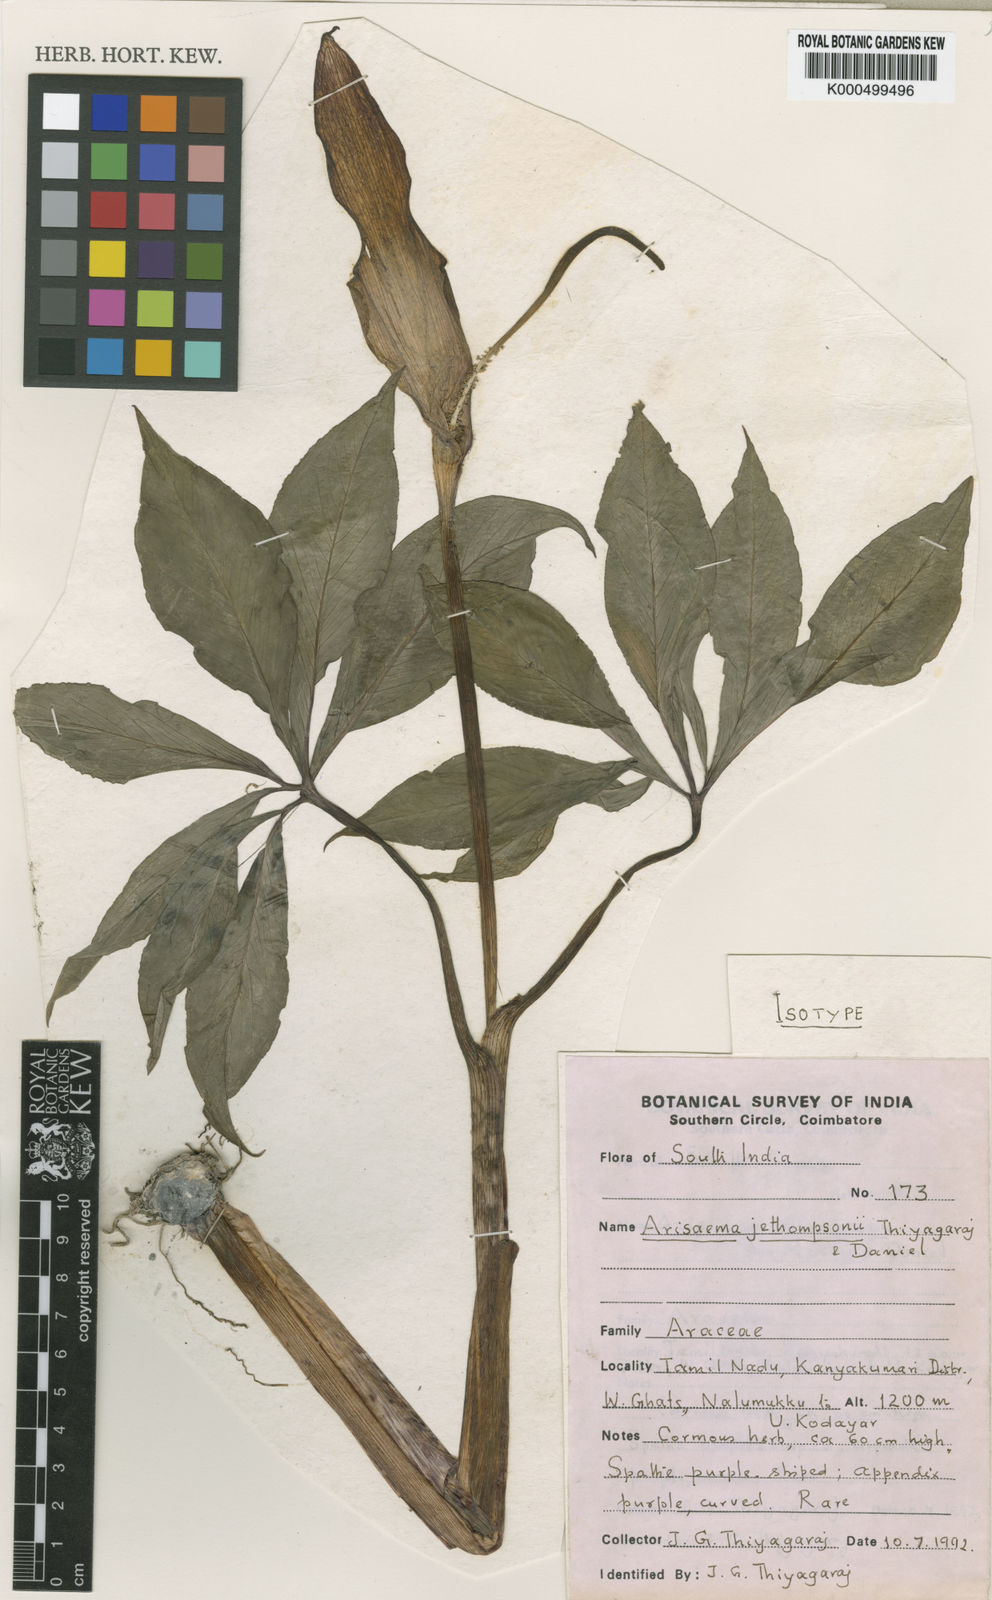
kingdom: Plantae
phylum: Tracheophyta
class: Liliopsida
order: Alismatales
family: Araceae
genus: Arisaema
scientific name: Arisaema jethompsonii
